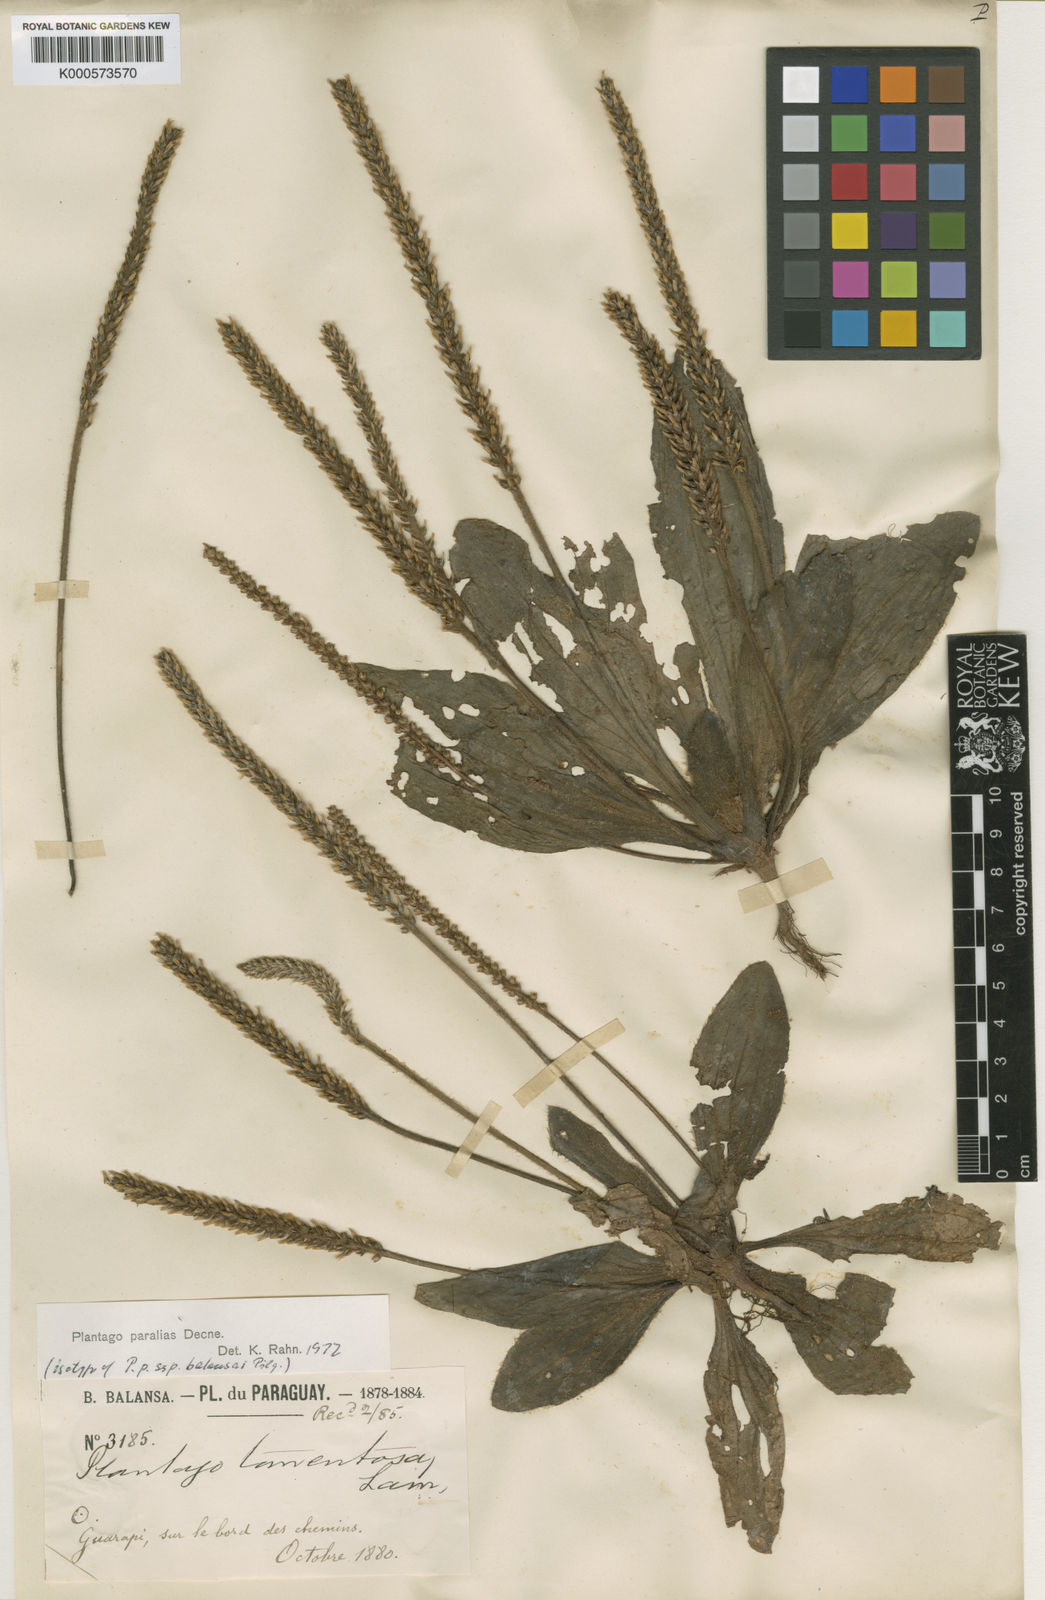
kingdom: Plantae
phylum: Tracheophyta
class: Magnoliopsida
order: Lamiales
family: Plantaginaceae
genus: Plantago
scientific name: Plantago tomentosa
